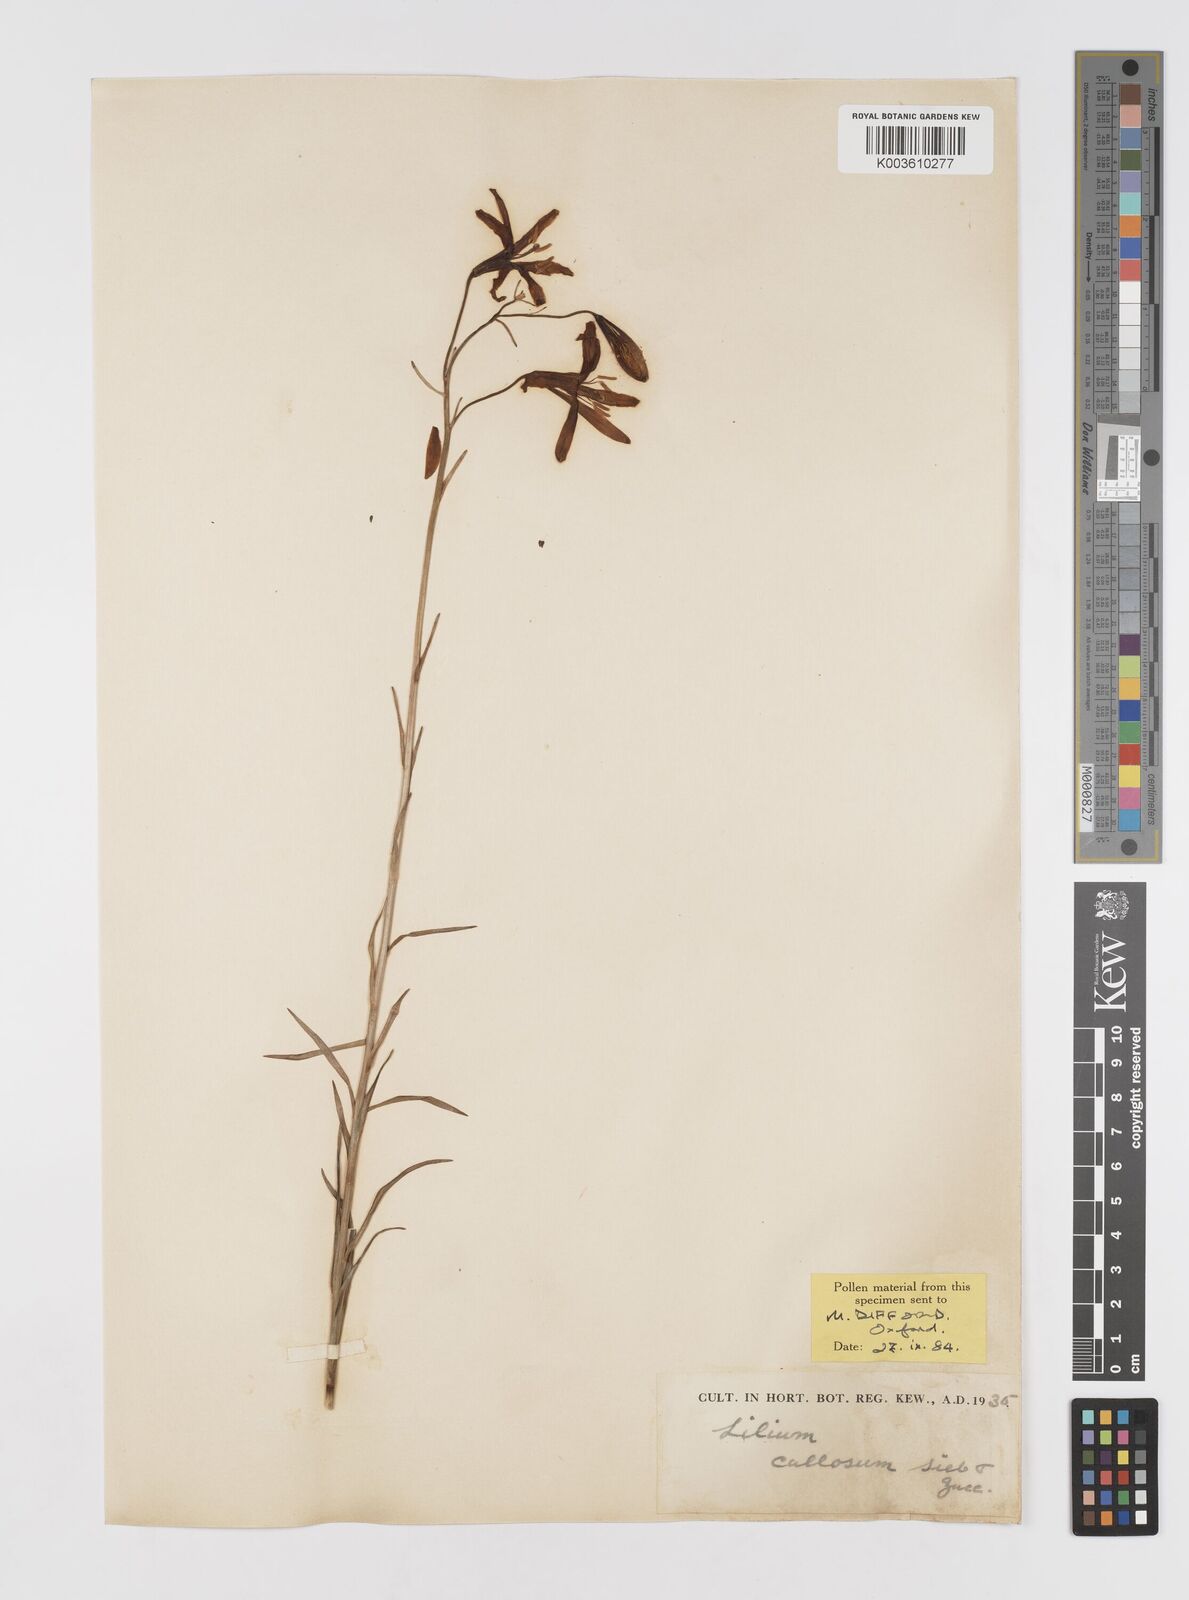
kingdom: Plantae
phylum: Tracheophyta
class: Liliopsida
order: Liliales
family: Liliaceae
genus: Lilium
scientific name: Lilium callosum
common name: Slim-stem lily
